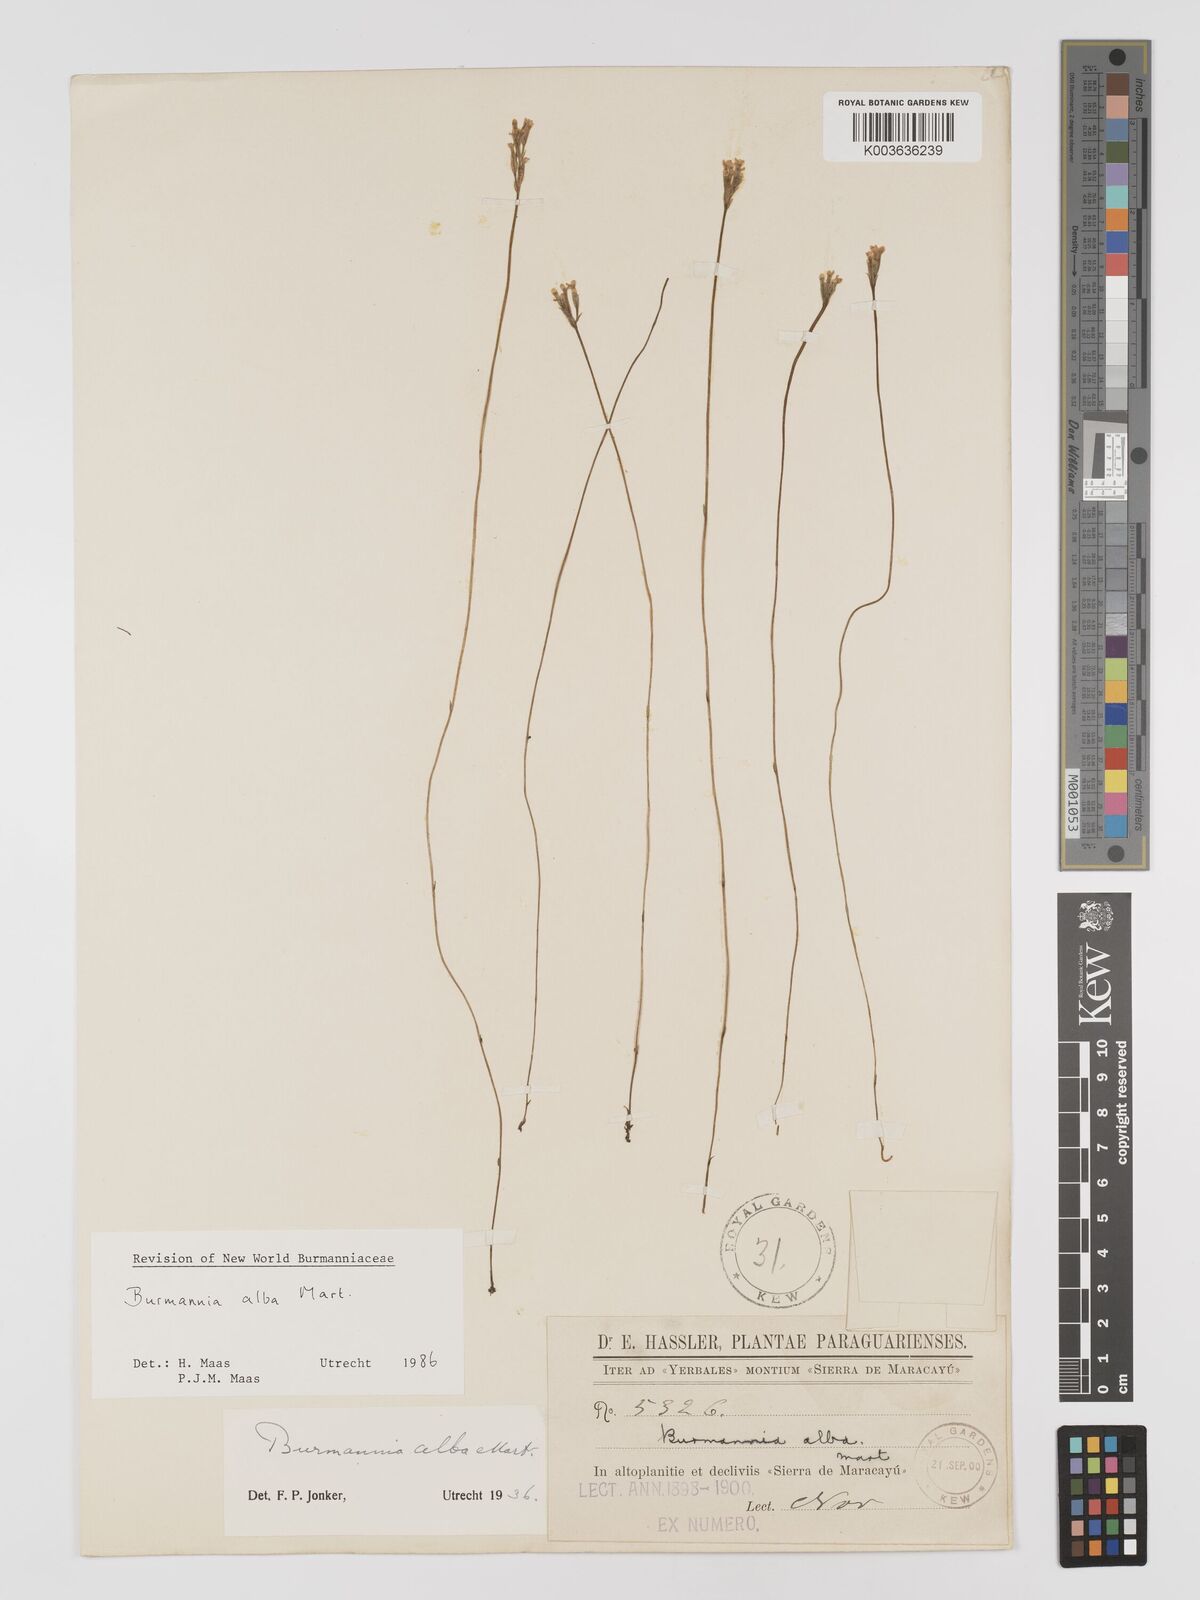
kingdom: Plantae
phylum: Tracheophyta
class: Liliopsida
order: Dioscoreales
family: Burmanniaceae
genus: Burmannia
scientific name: Burmannia alba
